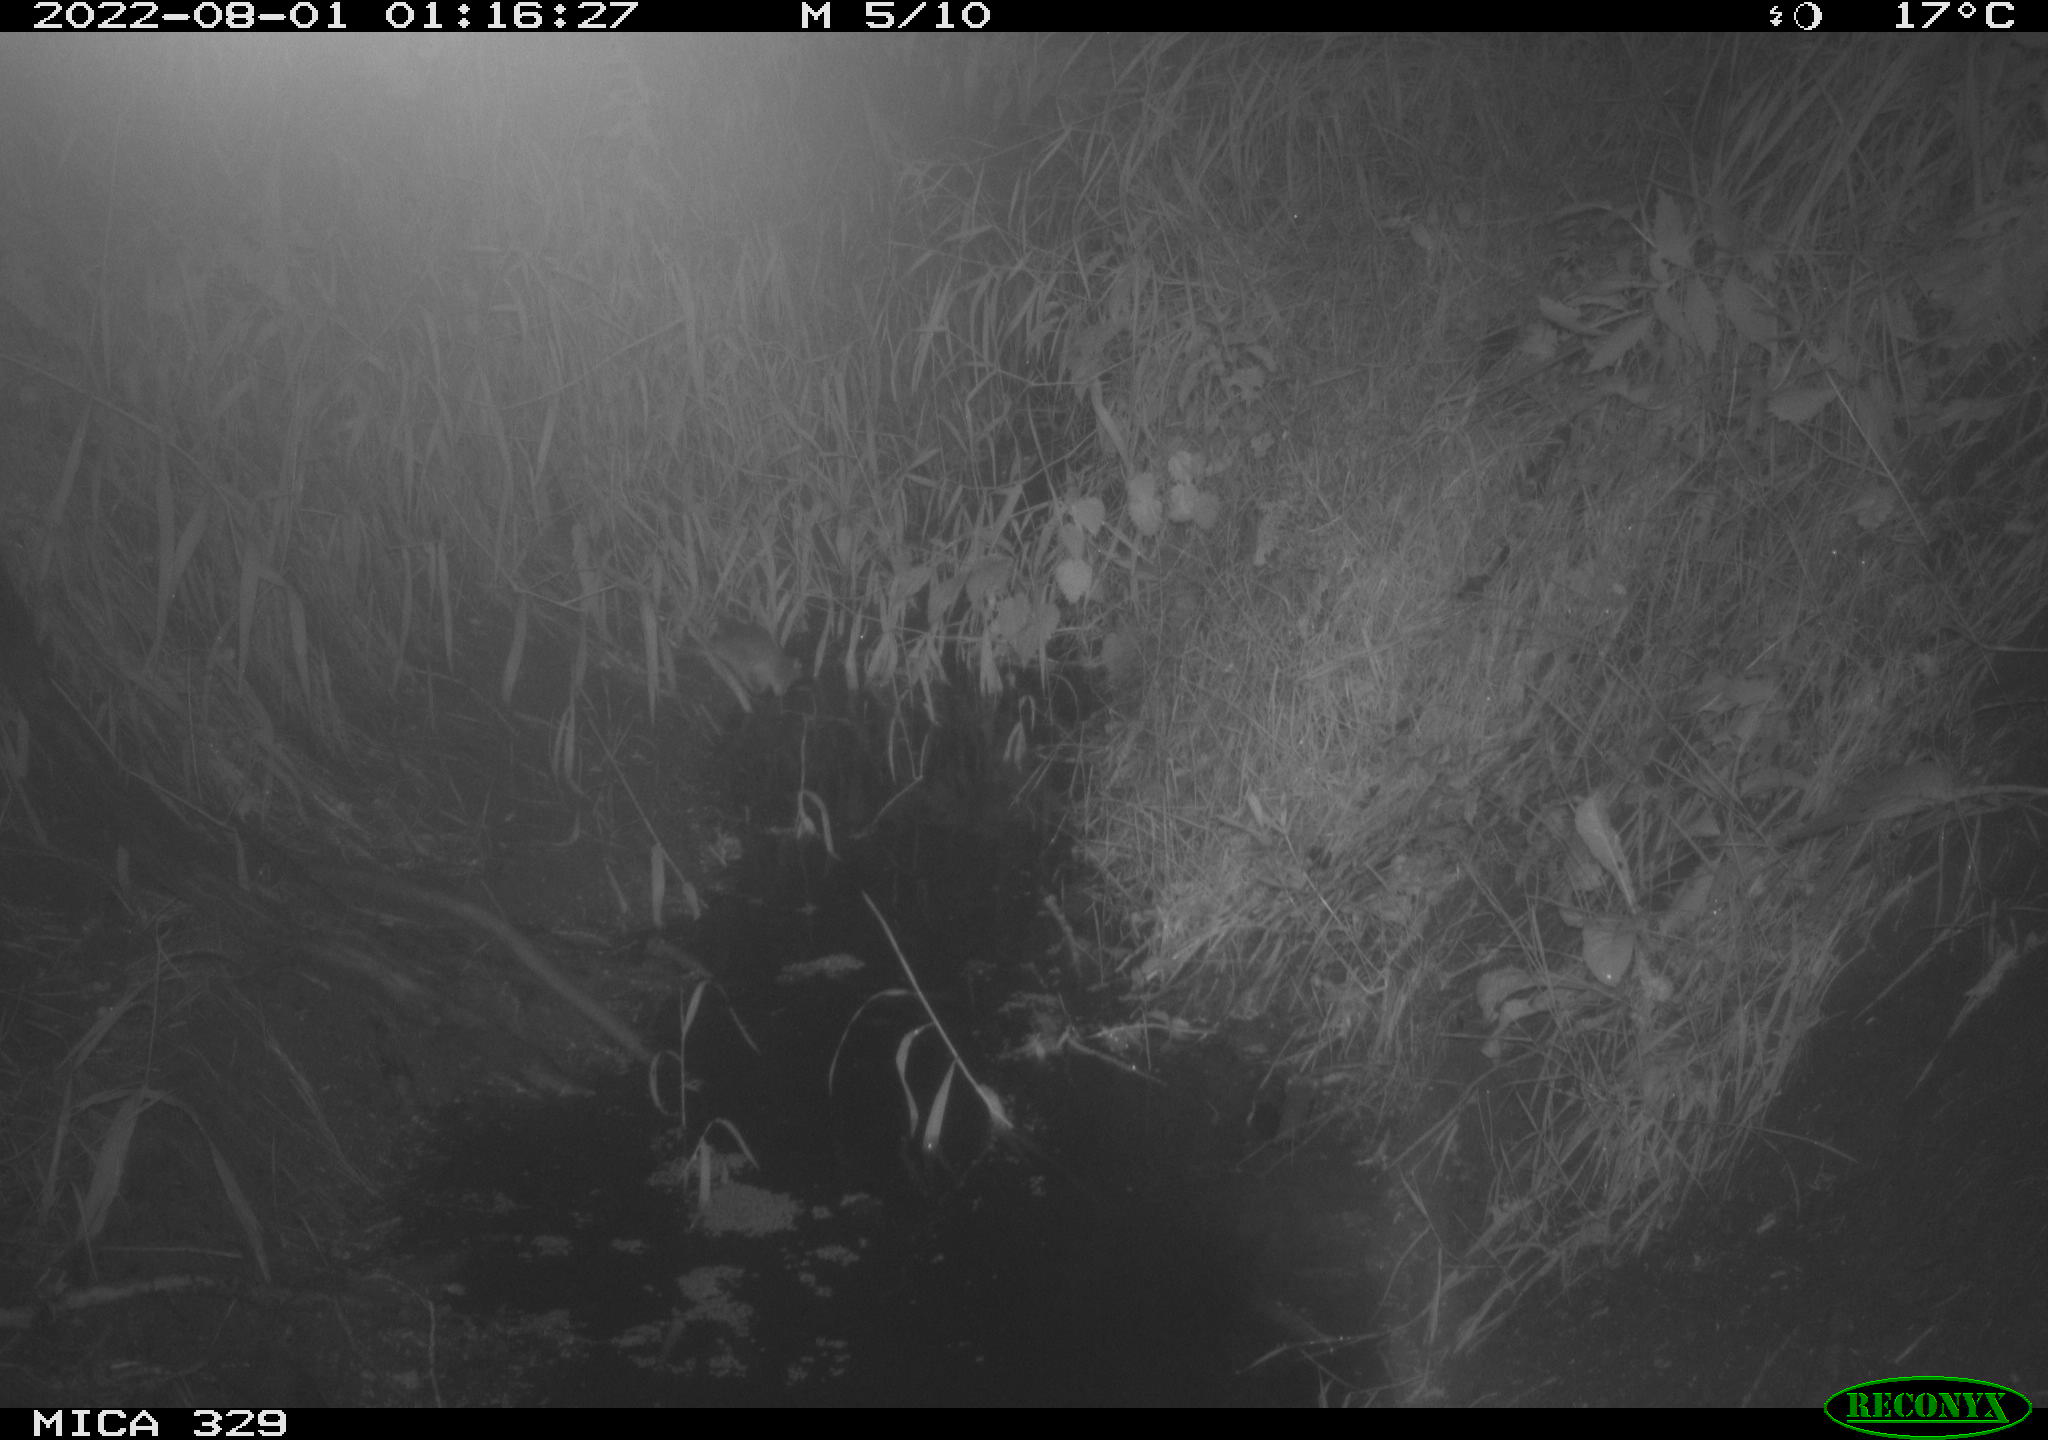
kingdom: Animalia
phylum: Chordata
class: Mammalia
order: Rodentia
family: Muridae
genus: Rattus
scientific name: Rattus norvegicus
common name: Brown rat
